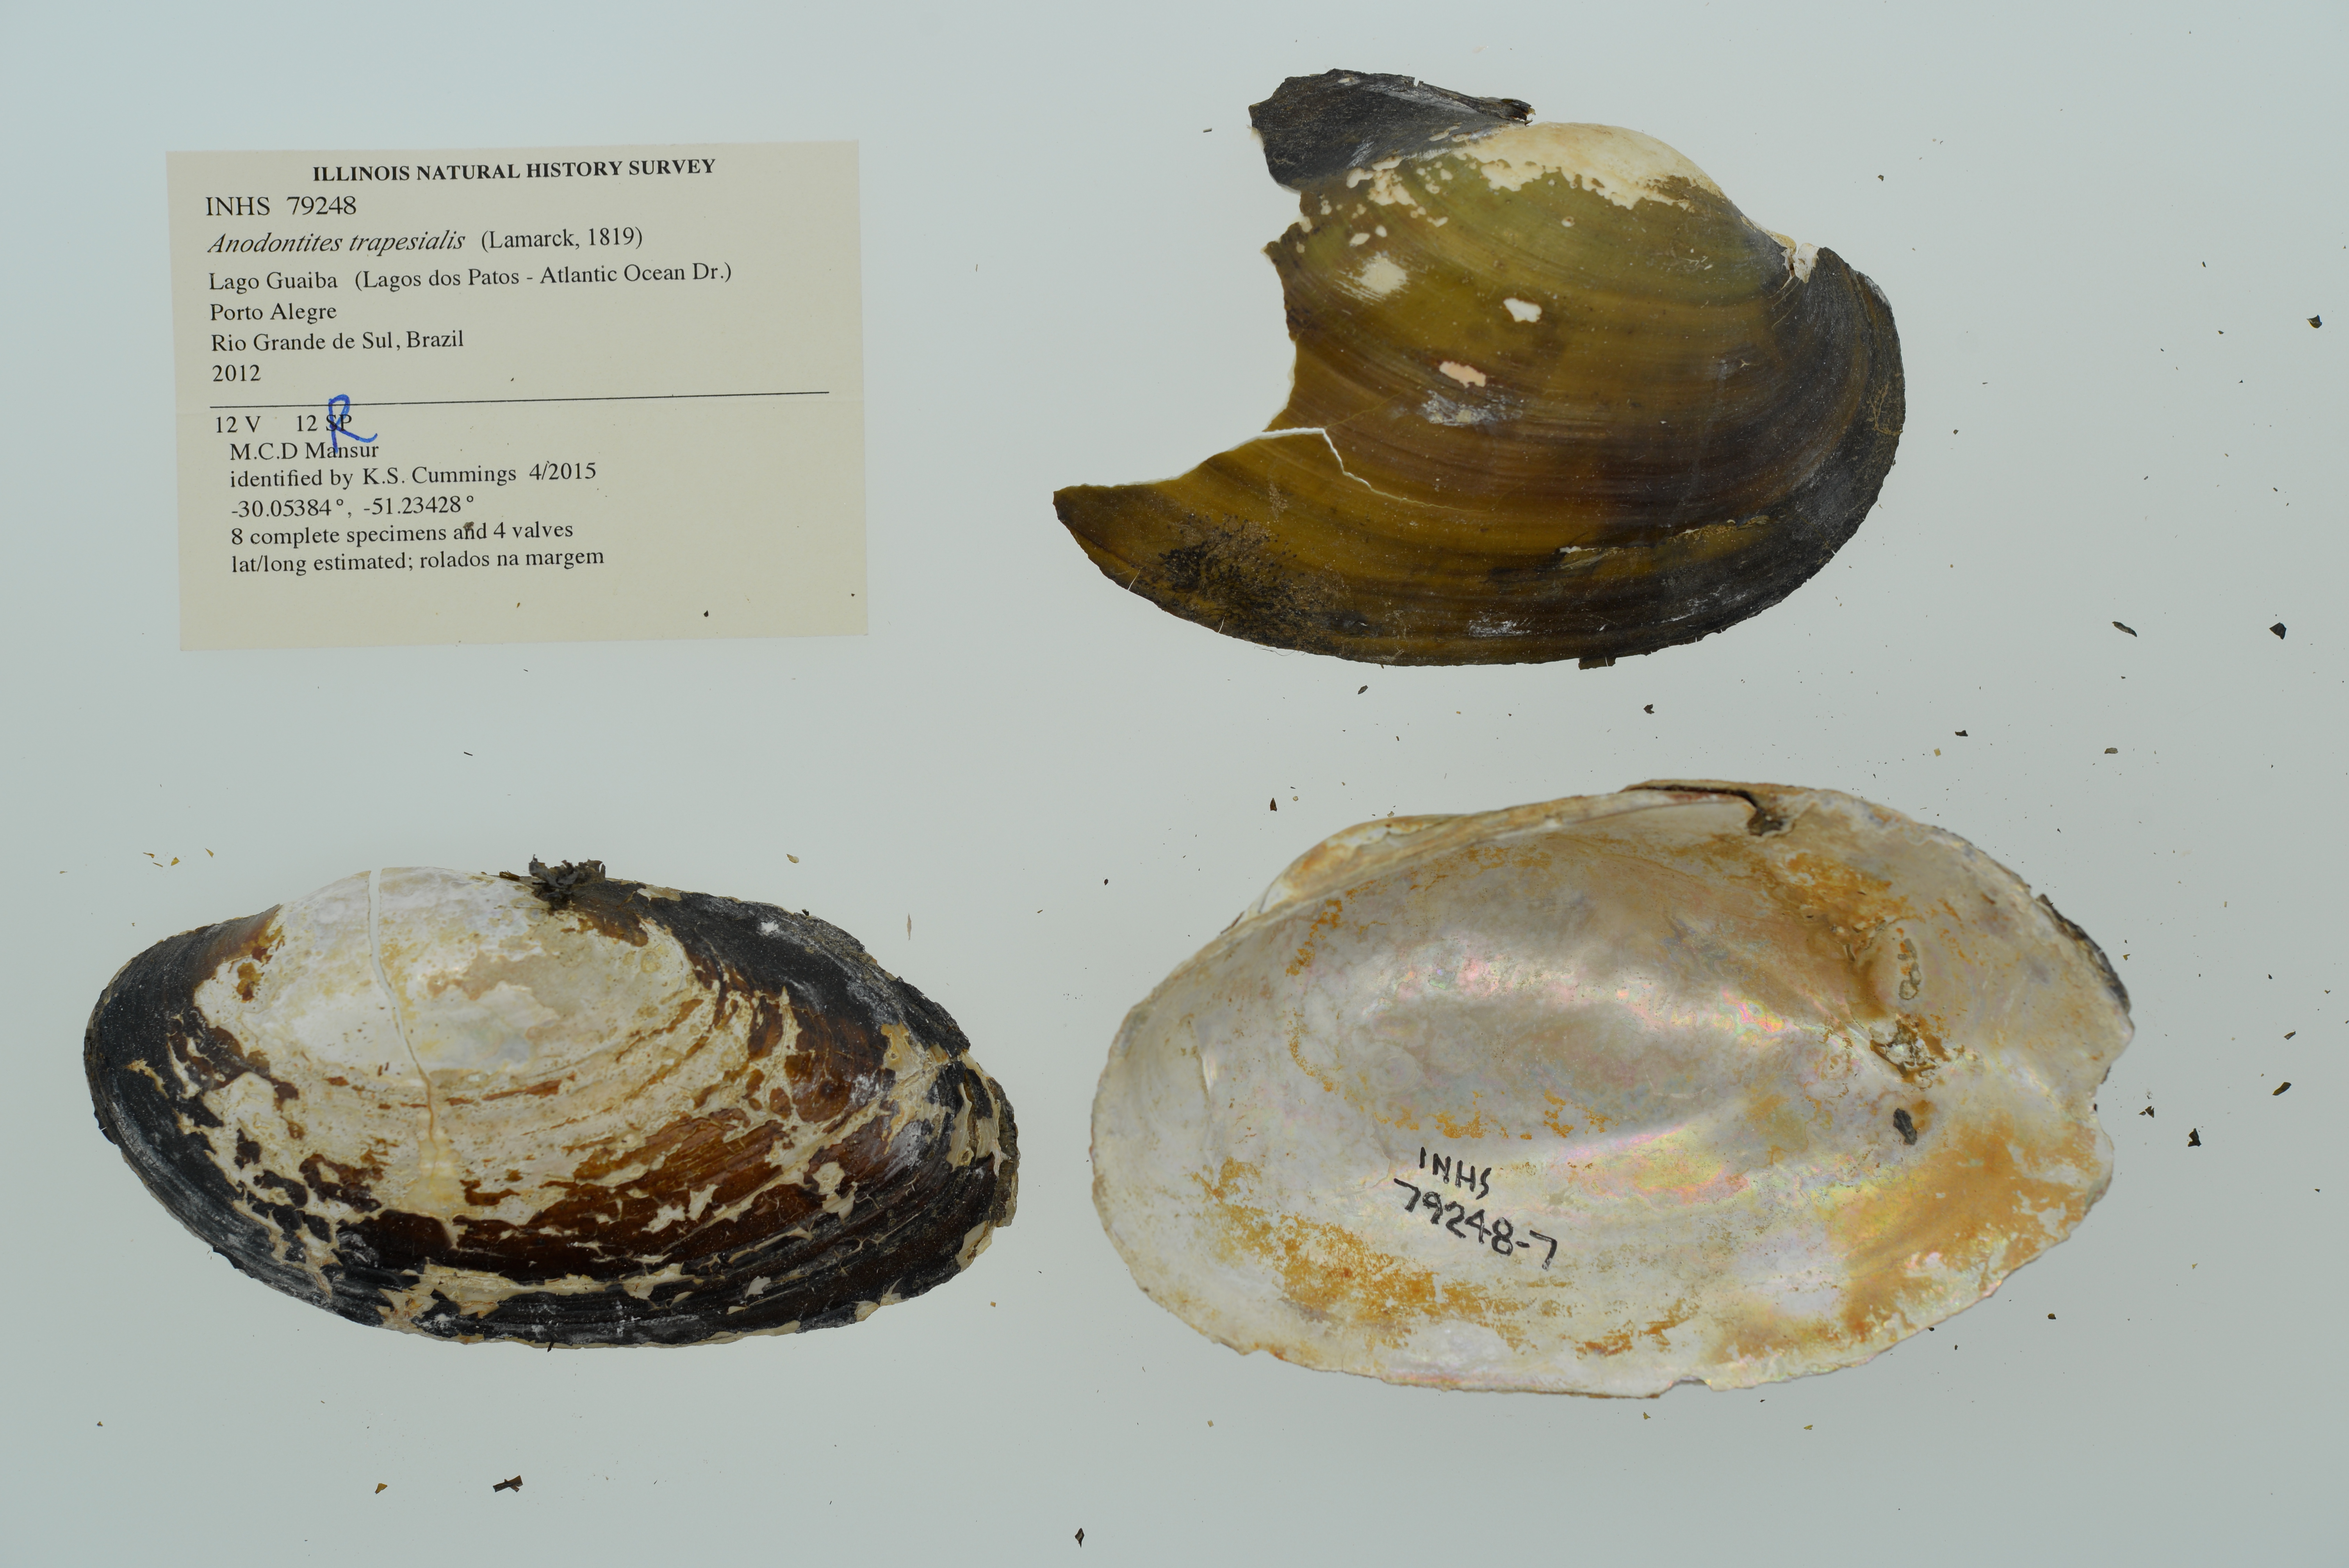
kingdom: Animalia
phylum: Mollusca
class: Bivalvia
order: Unionida
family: Mycetopodidae
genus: Anodontites
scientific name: Anodontites trapesialis
